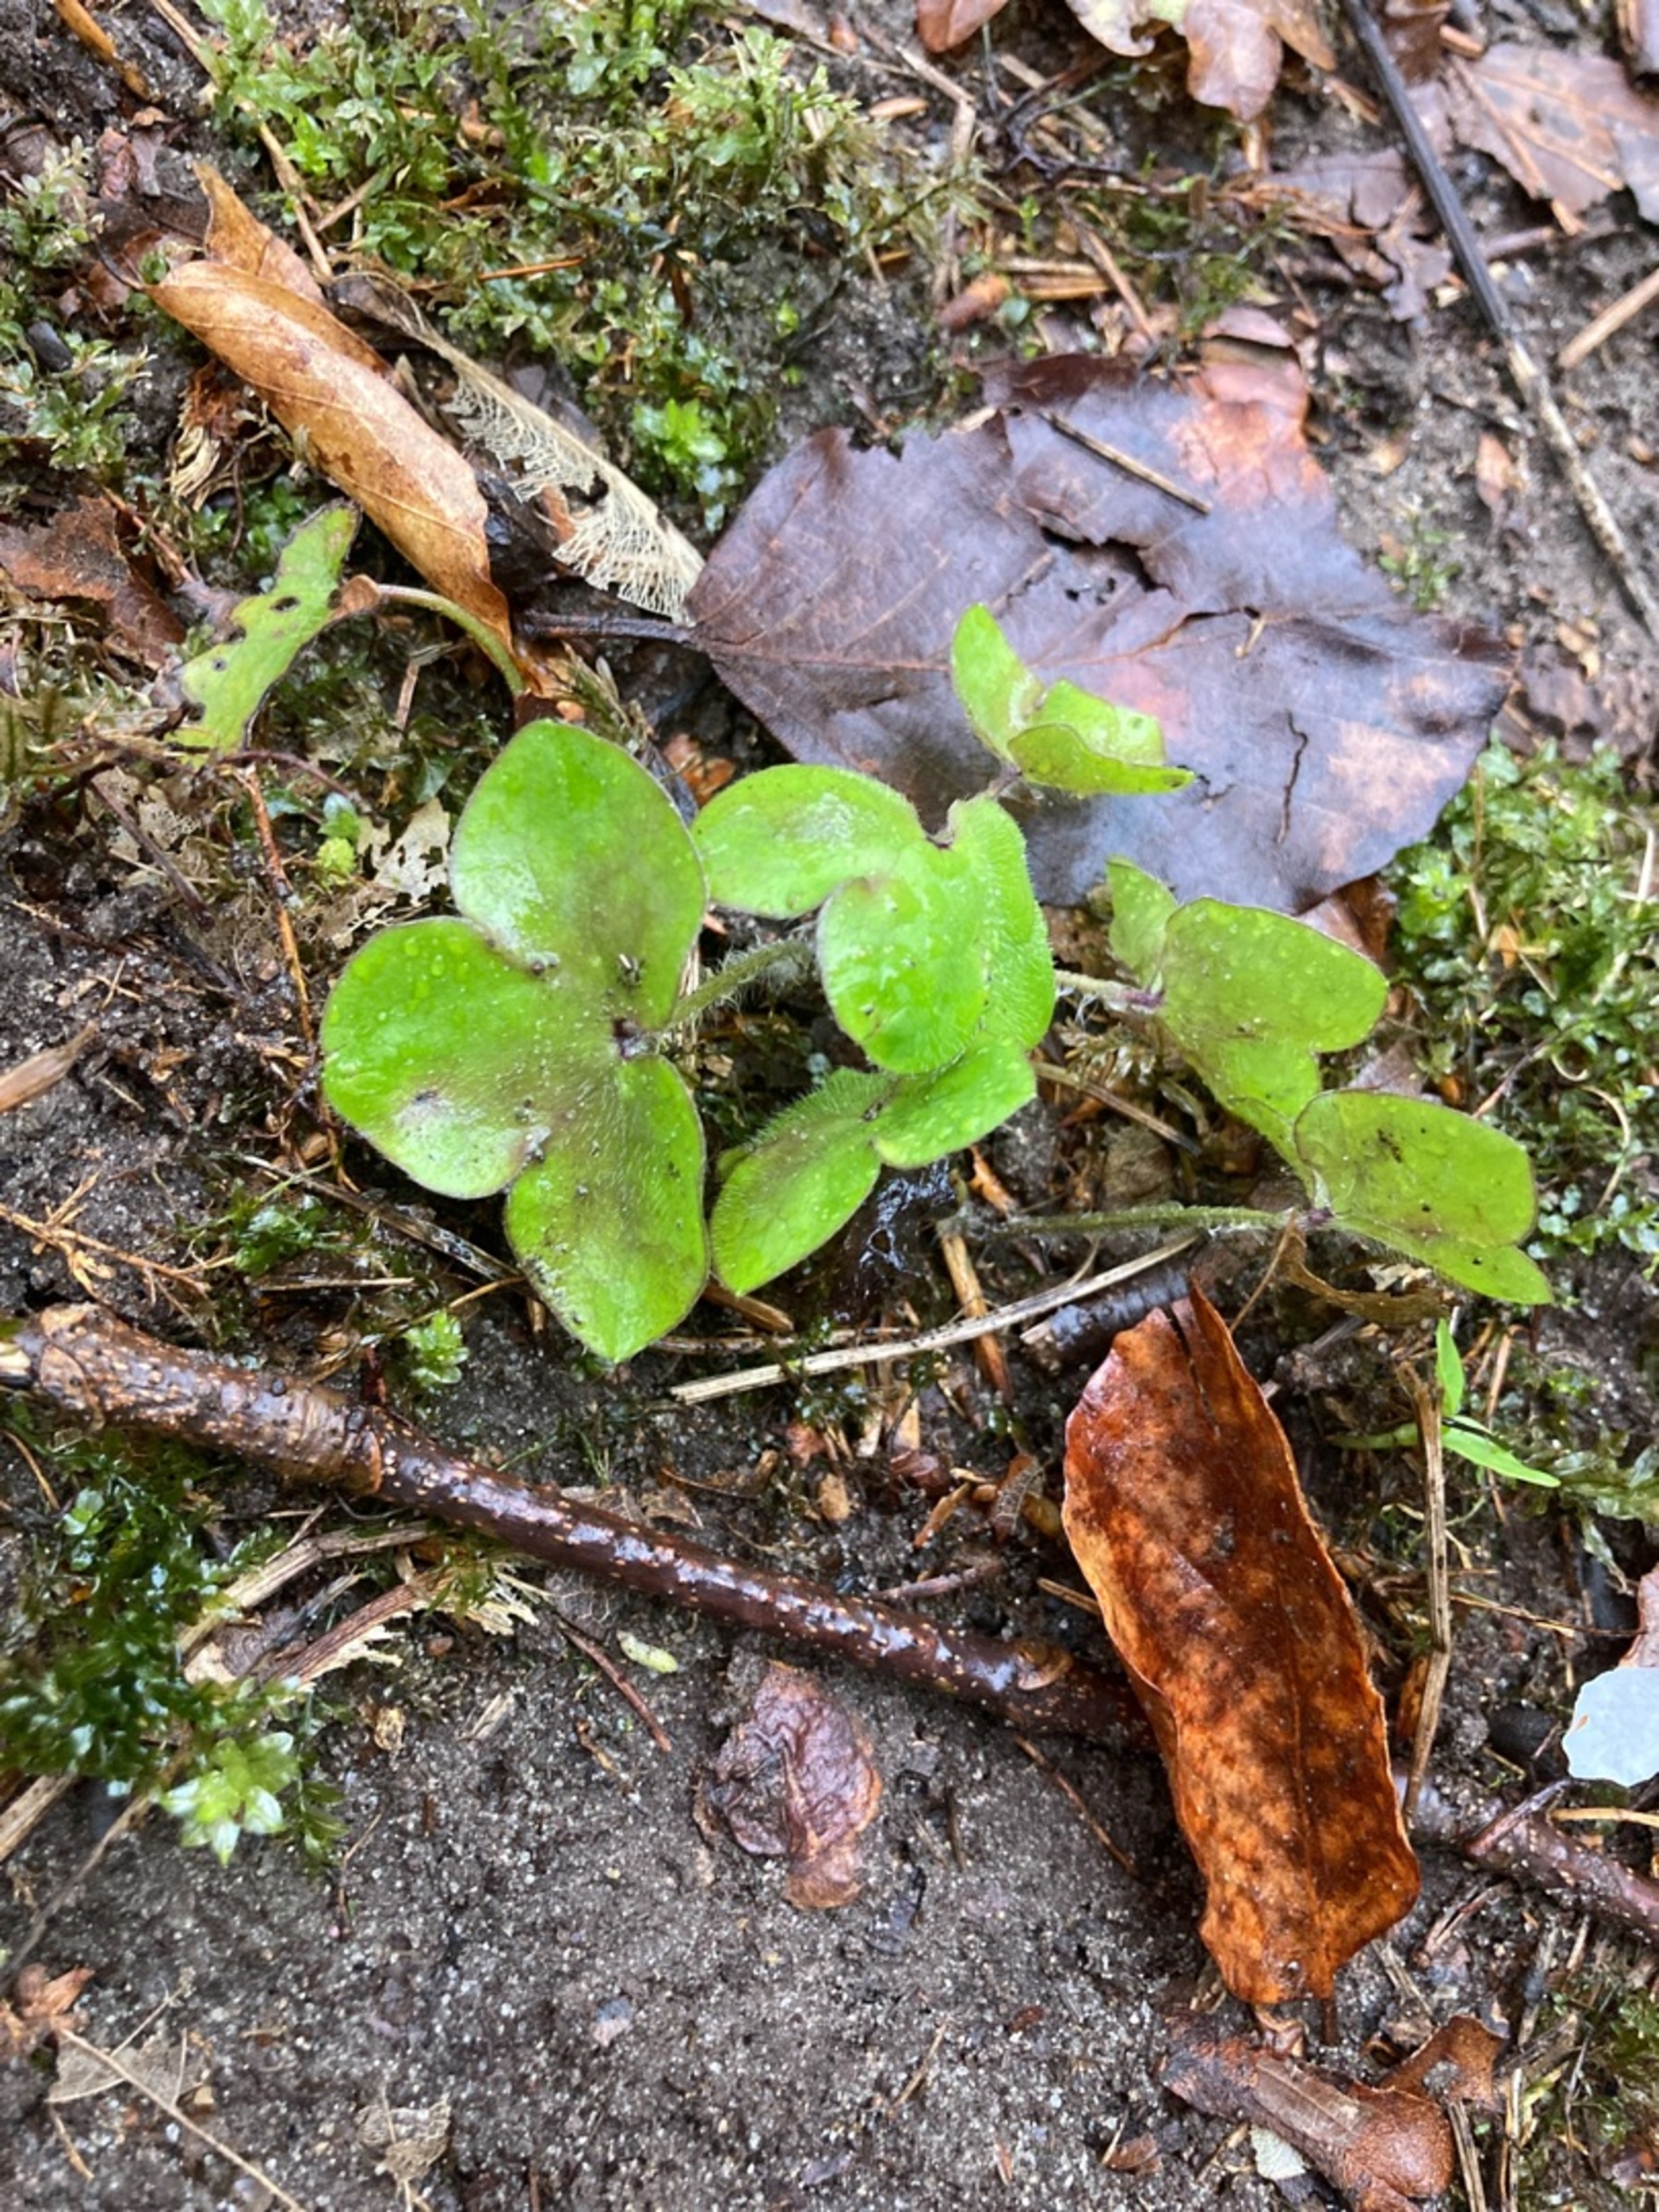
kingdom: Plantae
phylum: Tracheophyta
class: Magnoliopsida
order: Ranunculales
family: Ranunculaceae
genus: Hepatica
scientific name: Hepatica nobilis
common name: Blå anemone
